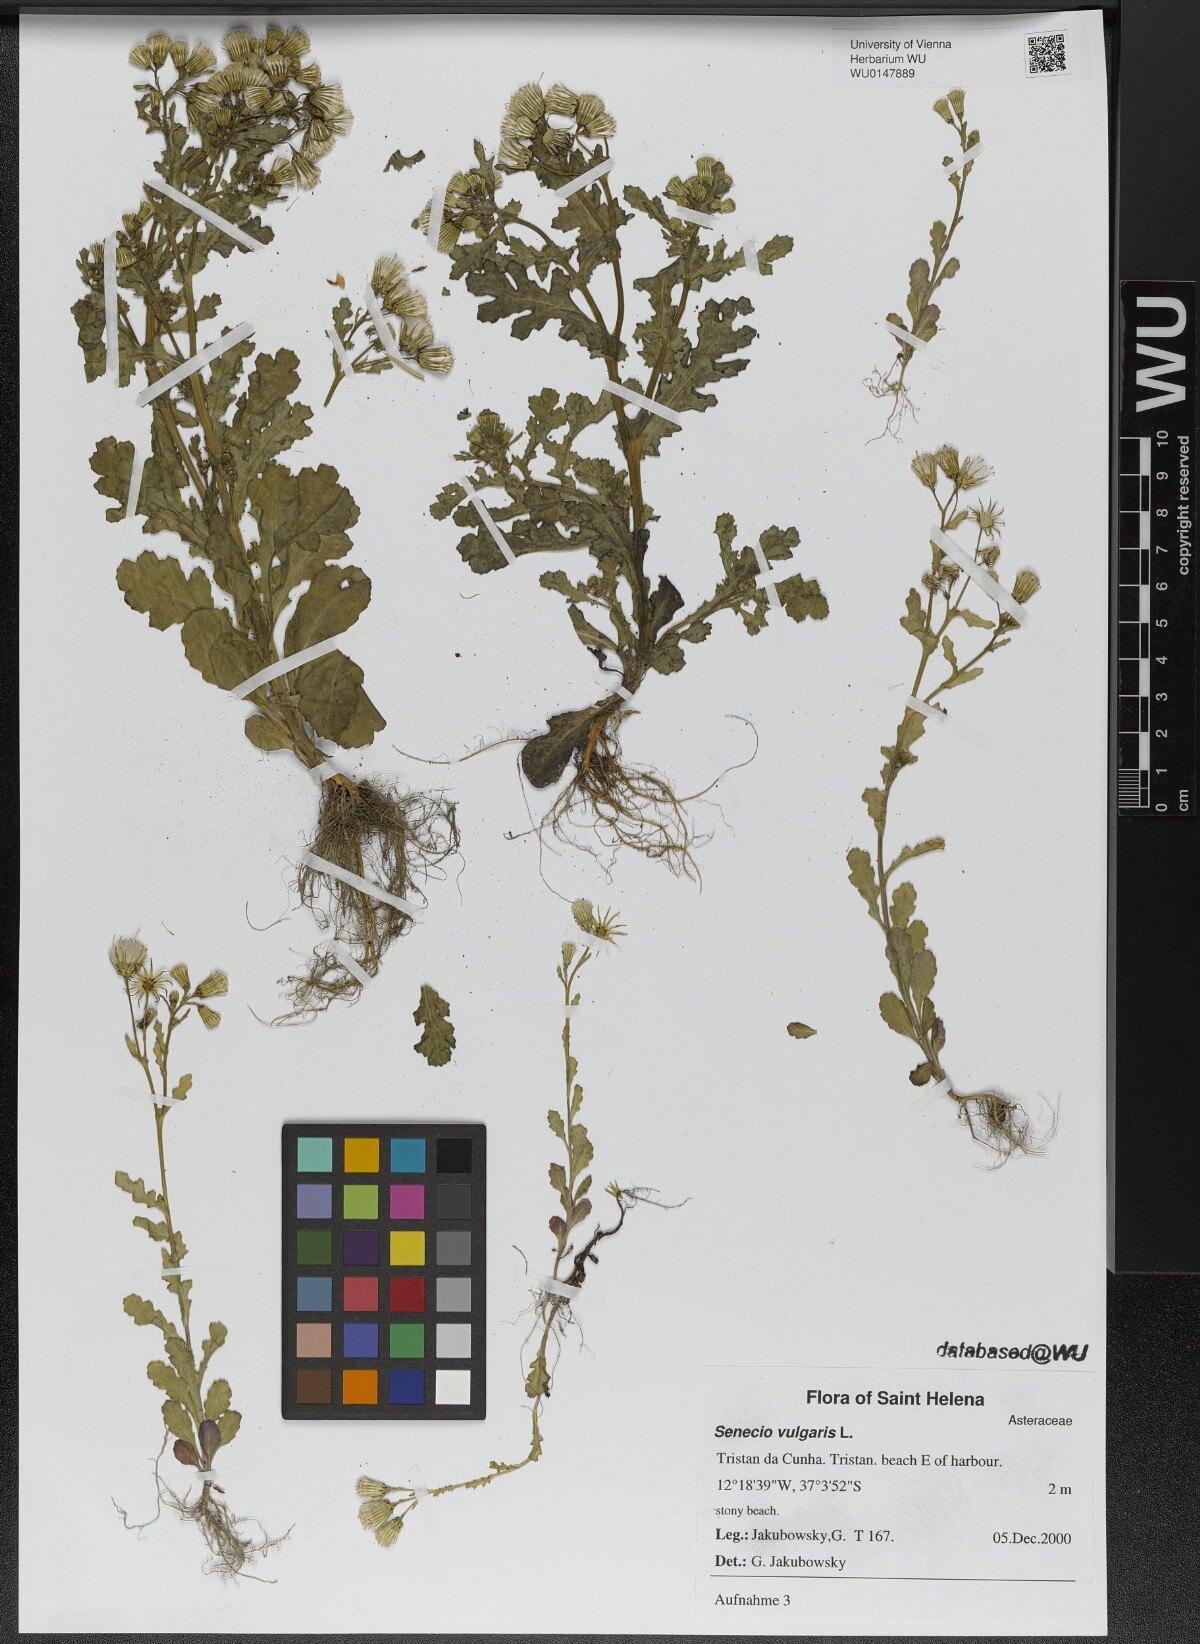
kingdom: Plantae
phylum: Tracheophyta
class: Magnoliopsida
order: Asterales
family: Asteraceae
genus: Senecio
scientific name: Senecio vulgaris
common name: Old-man-in-the-spring
